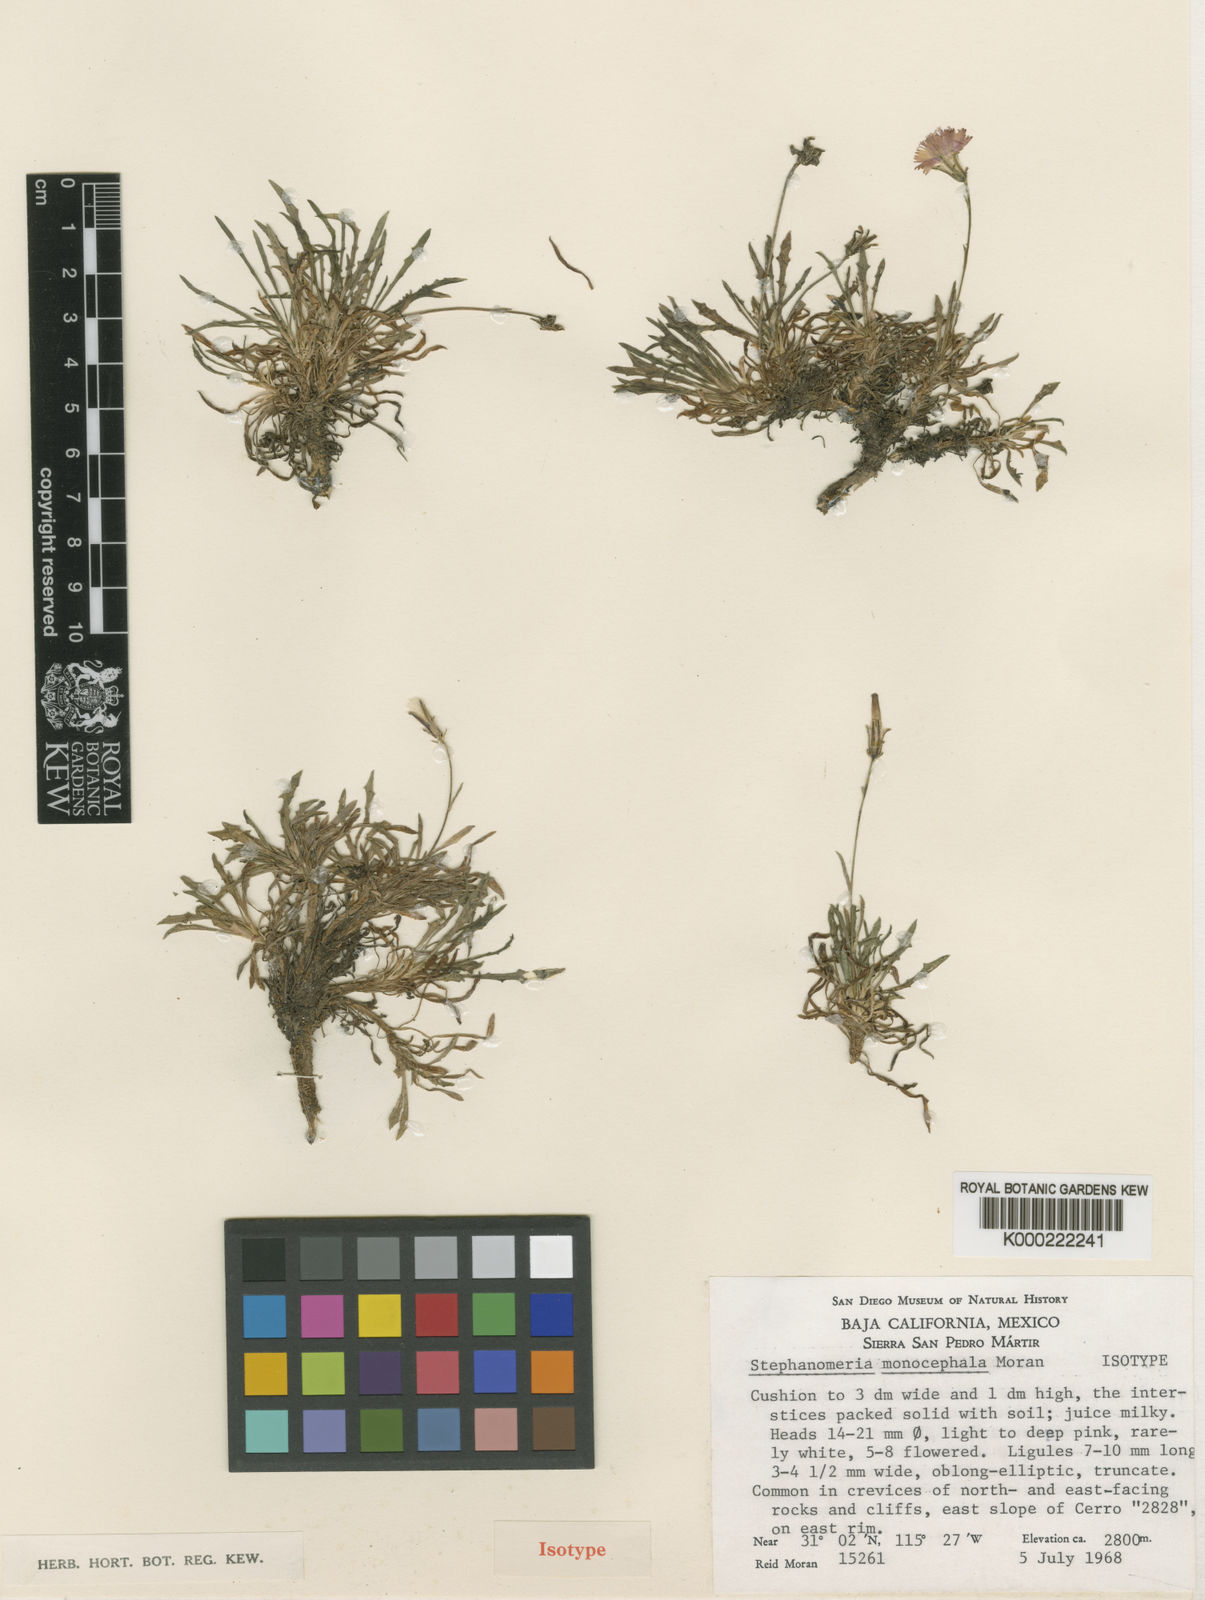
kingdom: Plantae
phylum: Tracheophyta
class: Magnoliopsida
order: Asterales
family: Asteraceae
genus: Stephanomeria
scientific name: Stephanomeria monocephala
